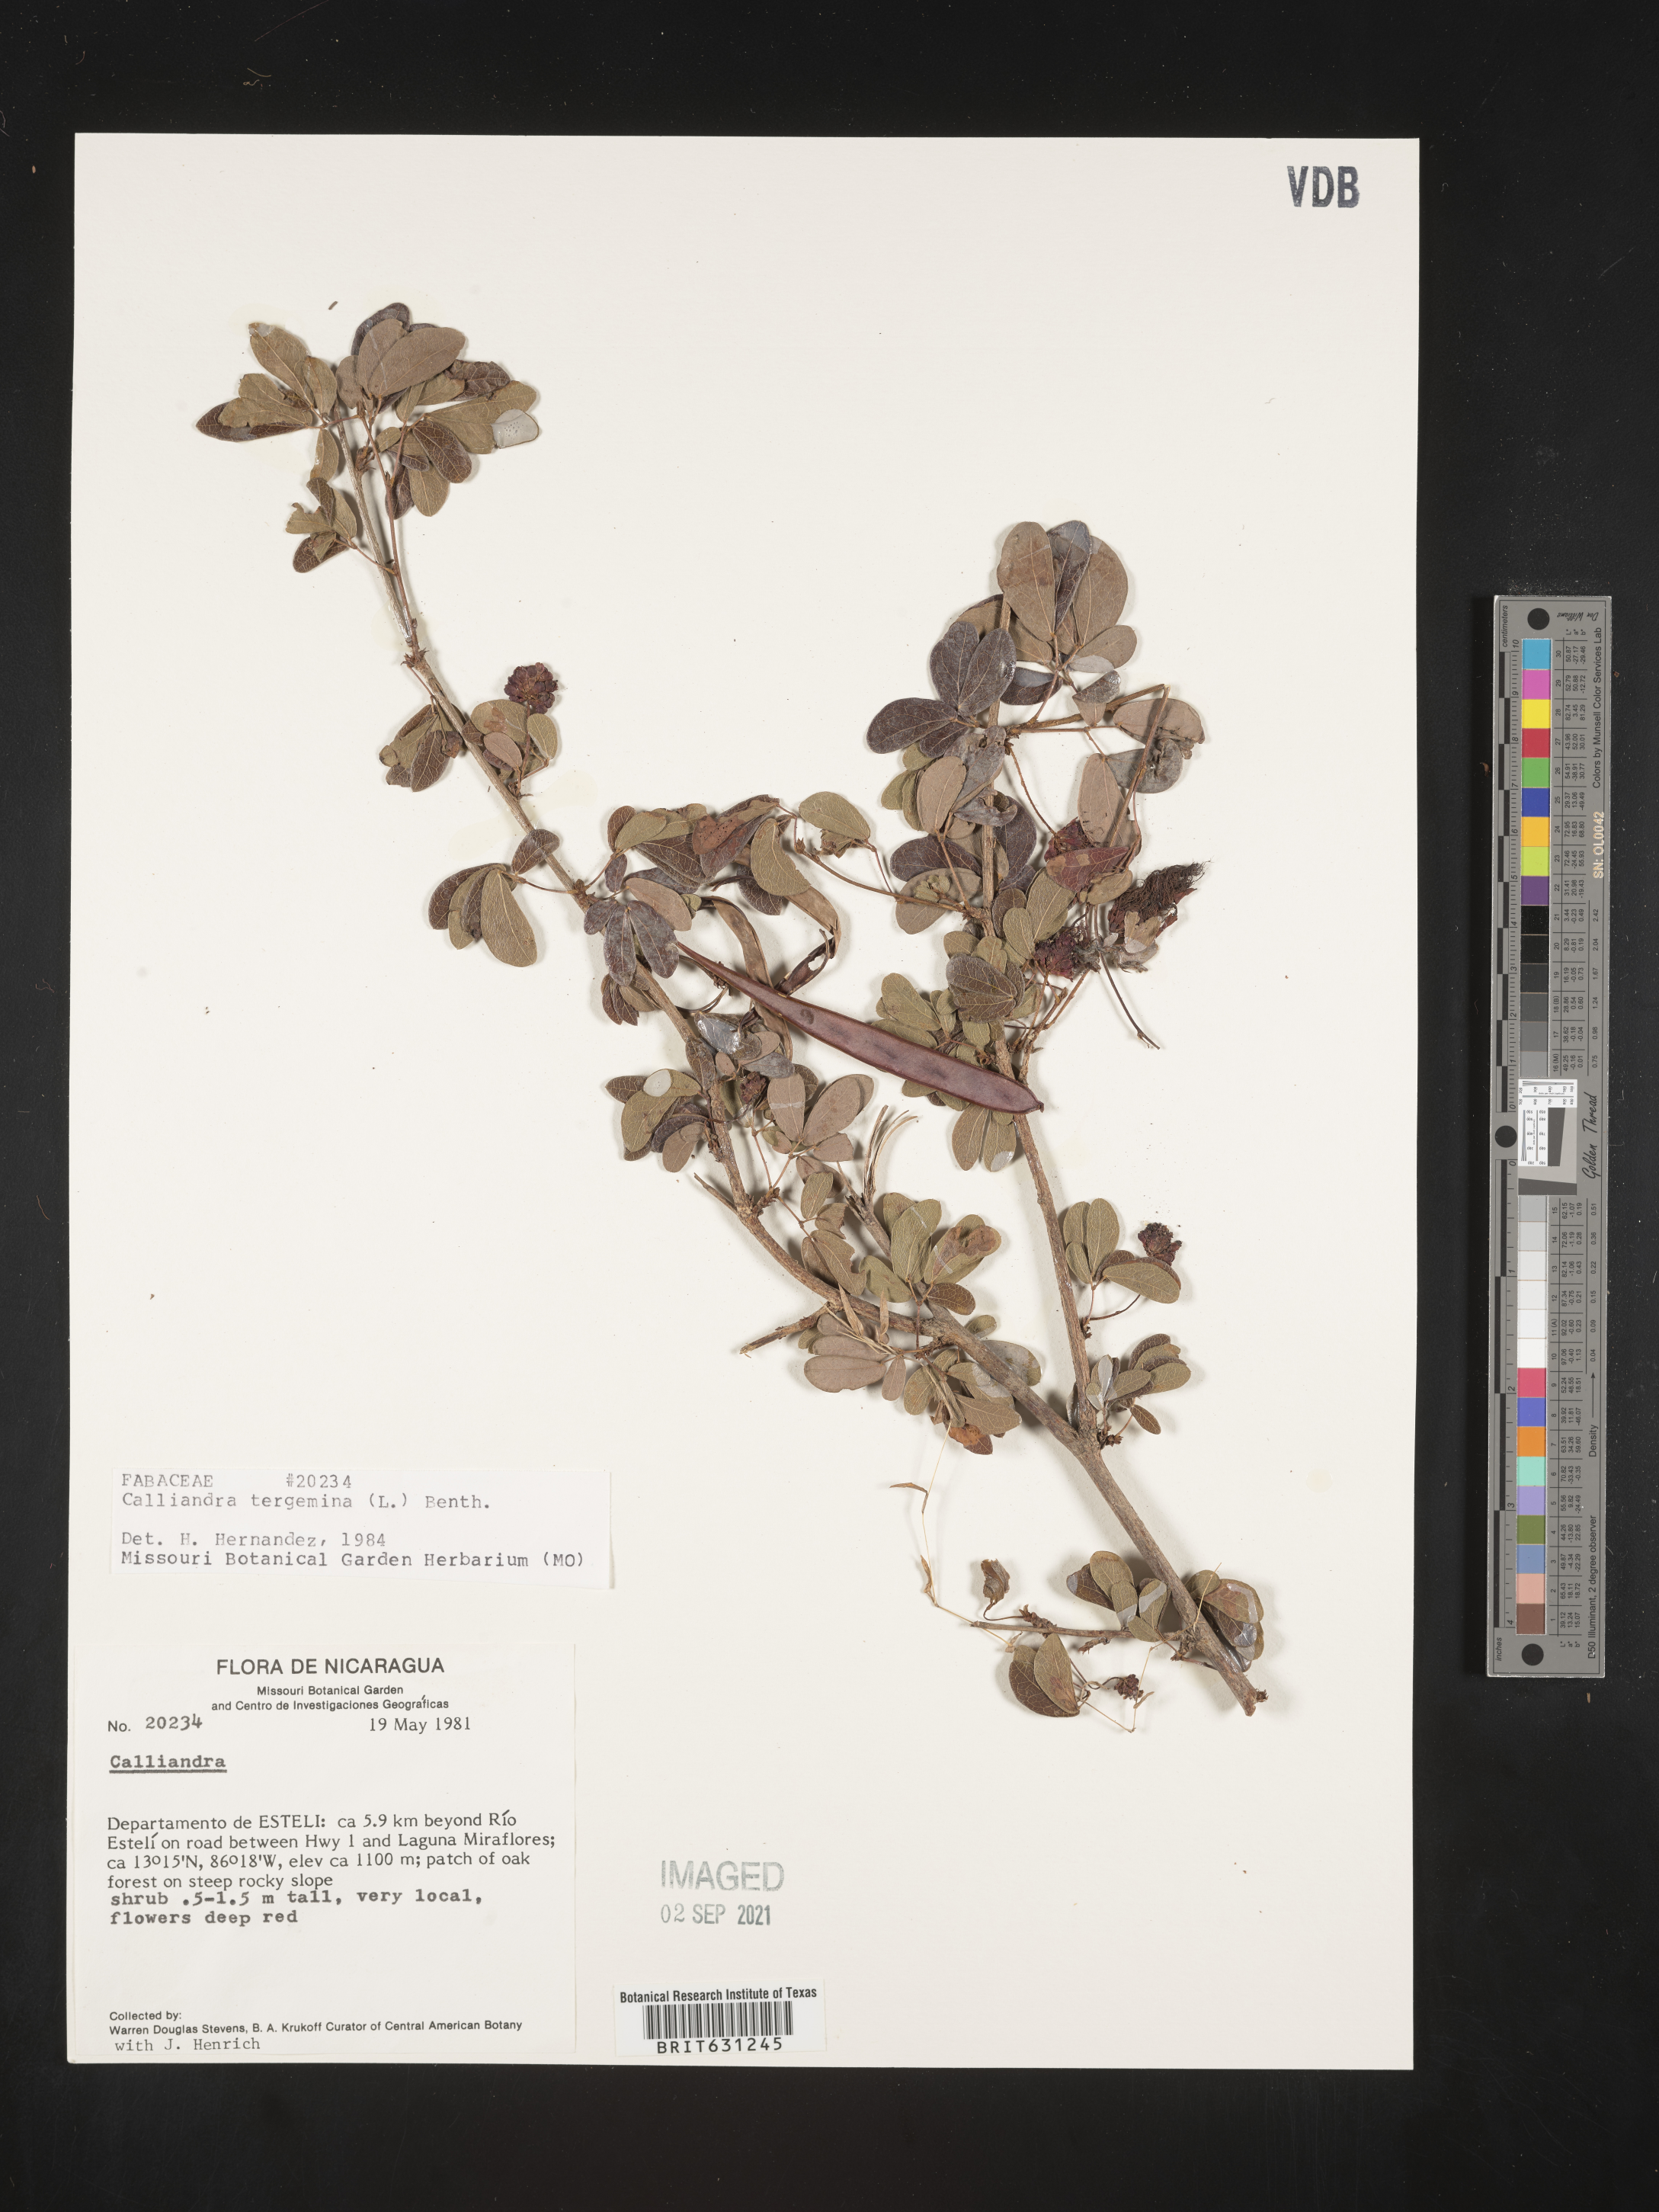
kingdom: Plantae
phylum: Tracheophyta
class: Magnoliopsida
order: Fabales
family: Fabaceae
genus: Calliandra
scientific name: Calliandra tergemina
